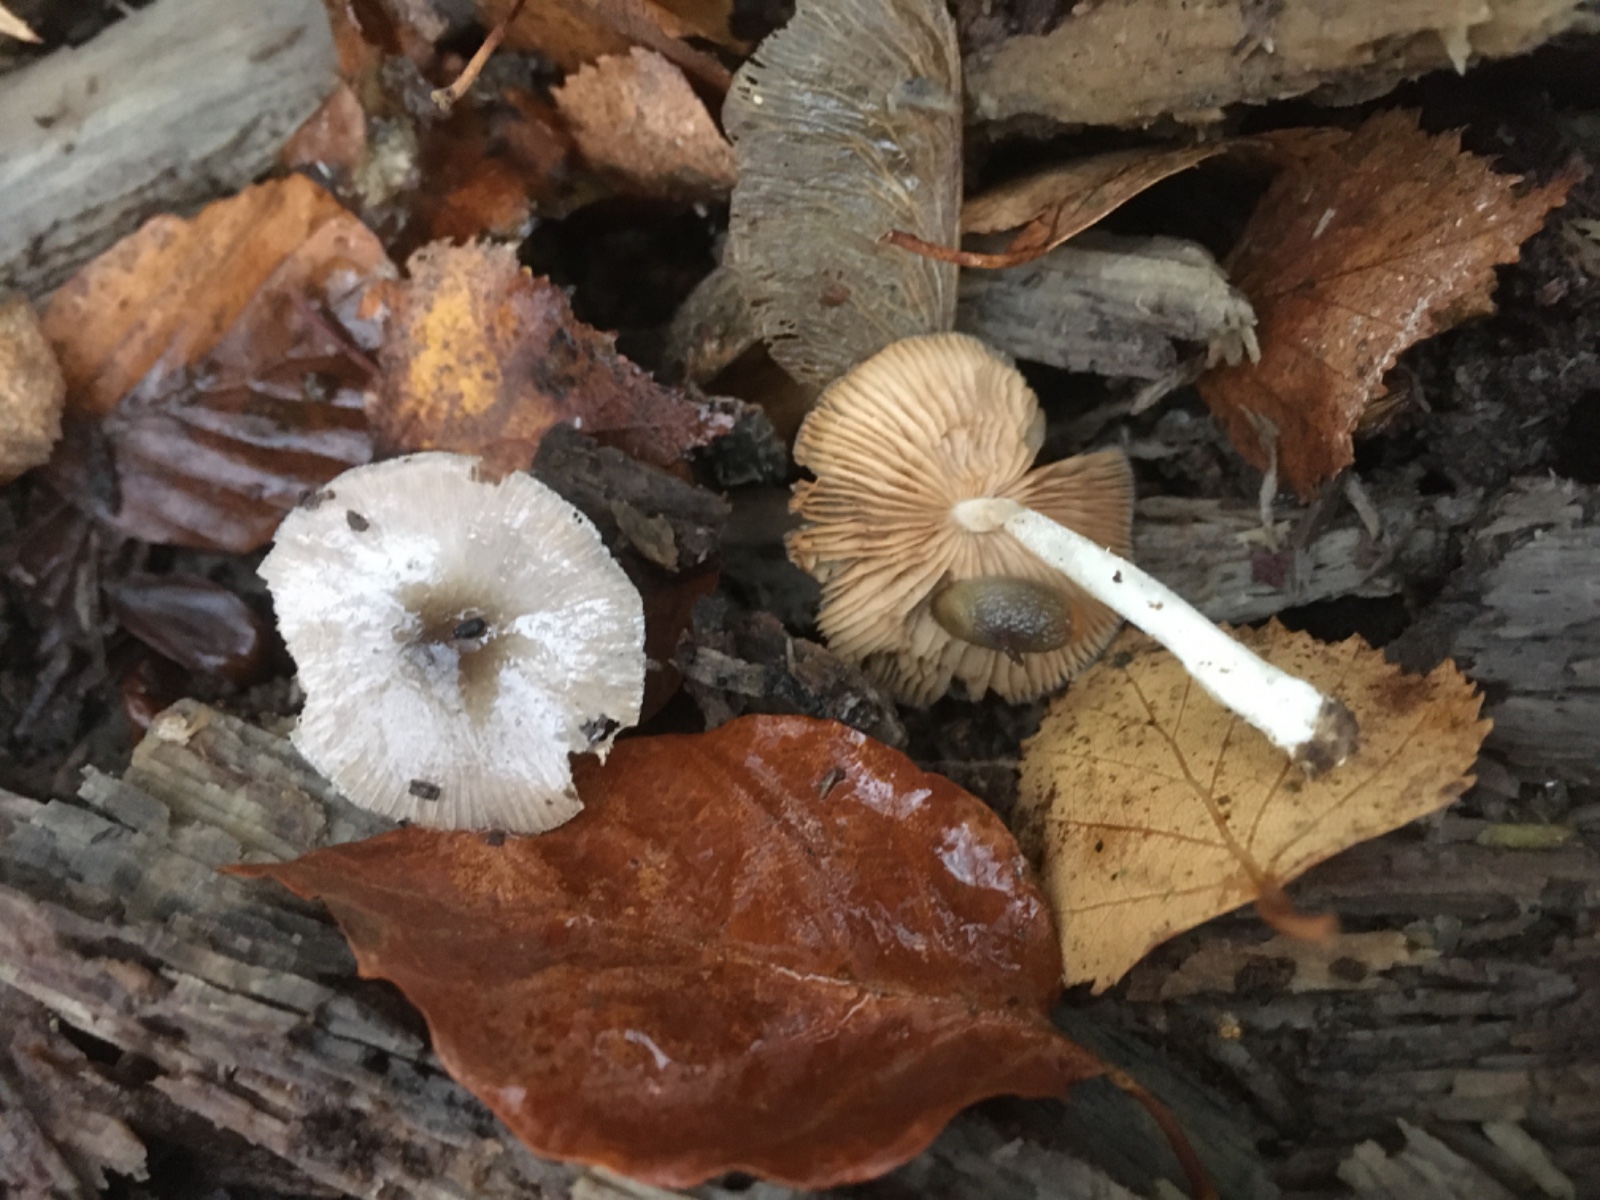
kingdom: Fungi
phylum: Basidiomycota
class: Agaricomycetes
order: Agaricales
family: Bolbitiaceae
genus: Bolbitius
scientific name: Bolbitius reticulatus
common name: Netted fieldcap
